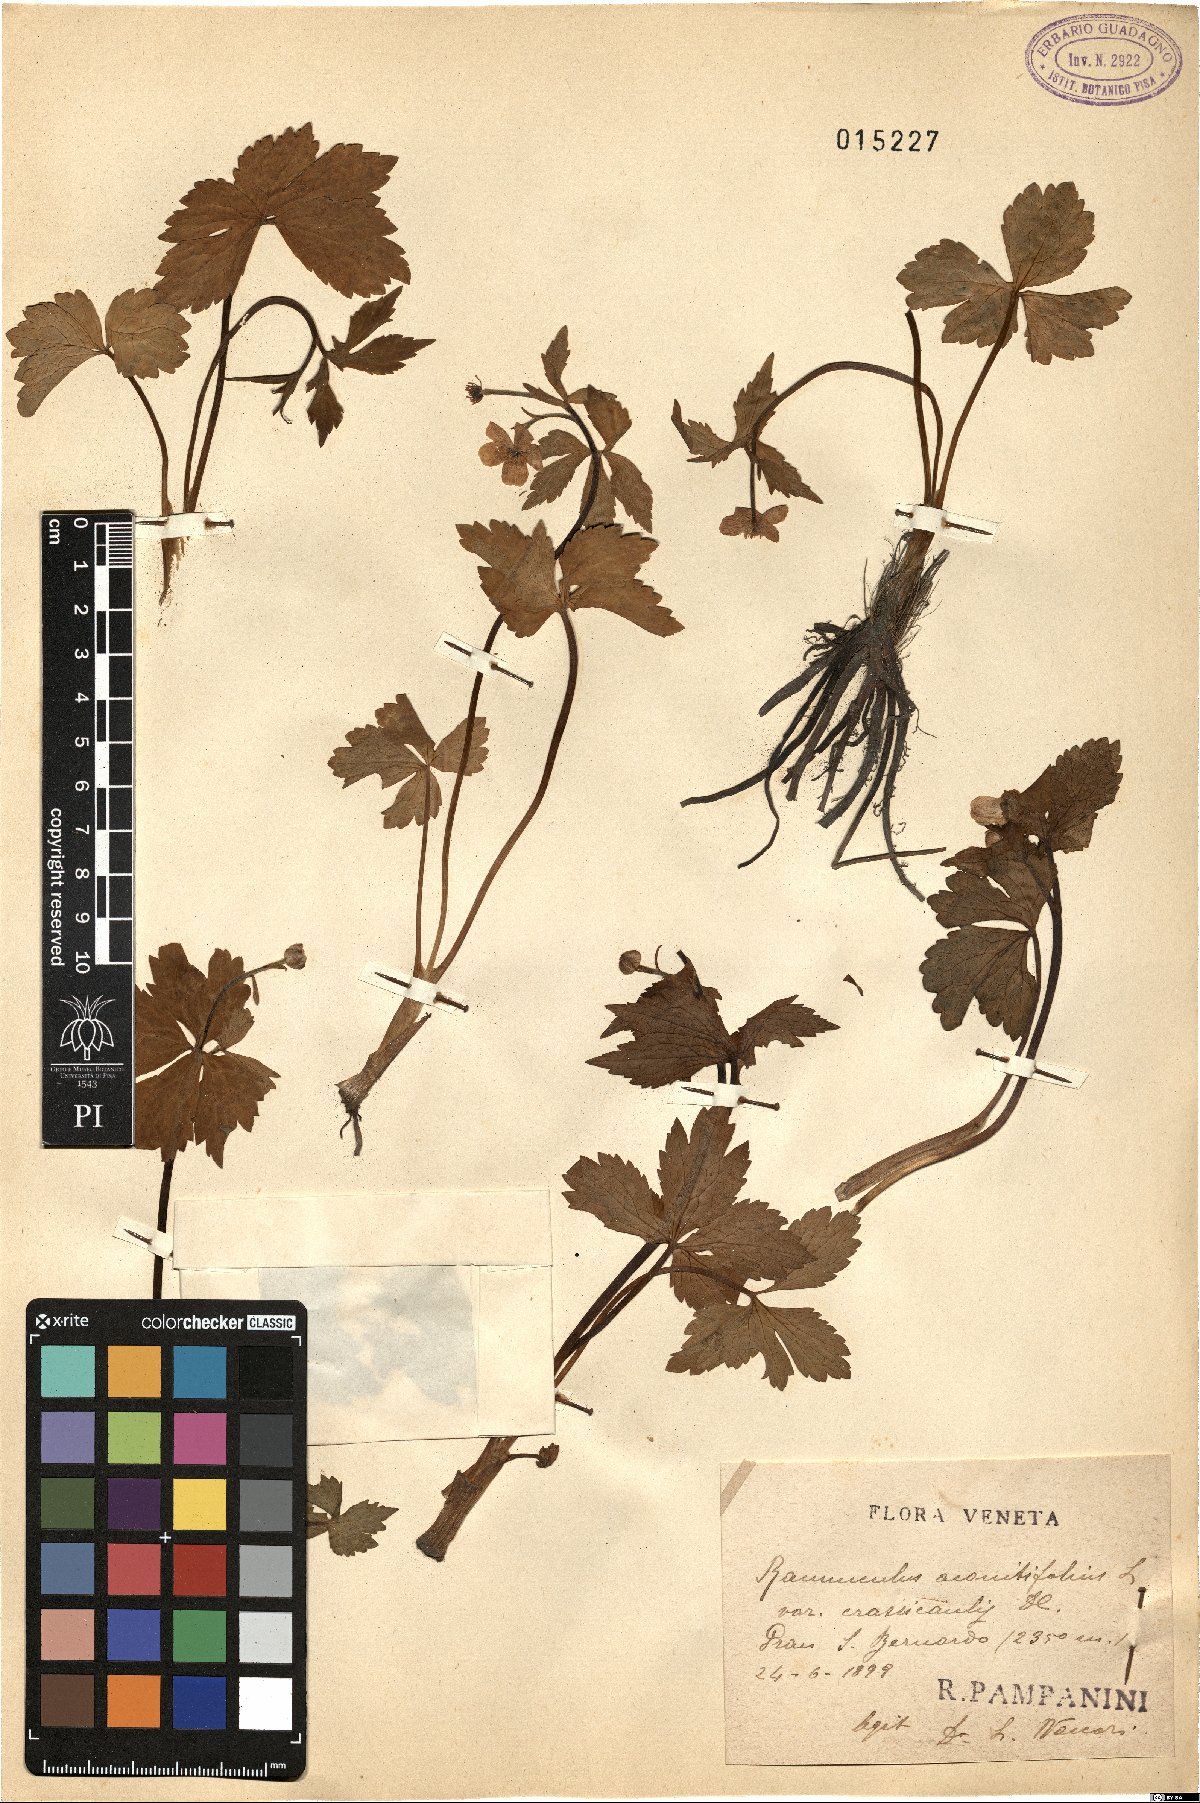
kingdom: Plantae
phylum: Tracheophyta
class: Magnoliopsida
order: Ranunculales
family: Ranunculaceae
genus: Ranunculus
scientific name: Ranunculus aconitifolius
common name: Aconite-leaved buttercup
